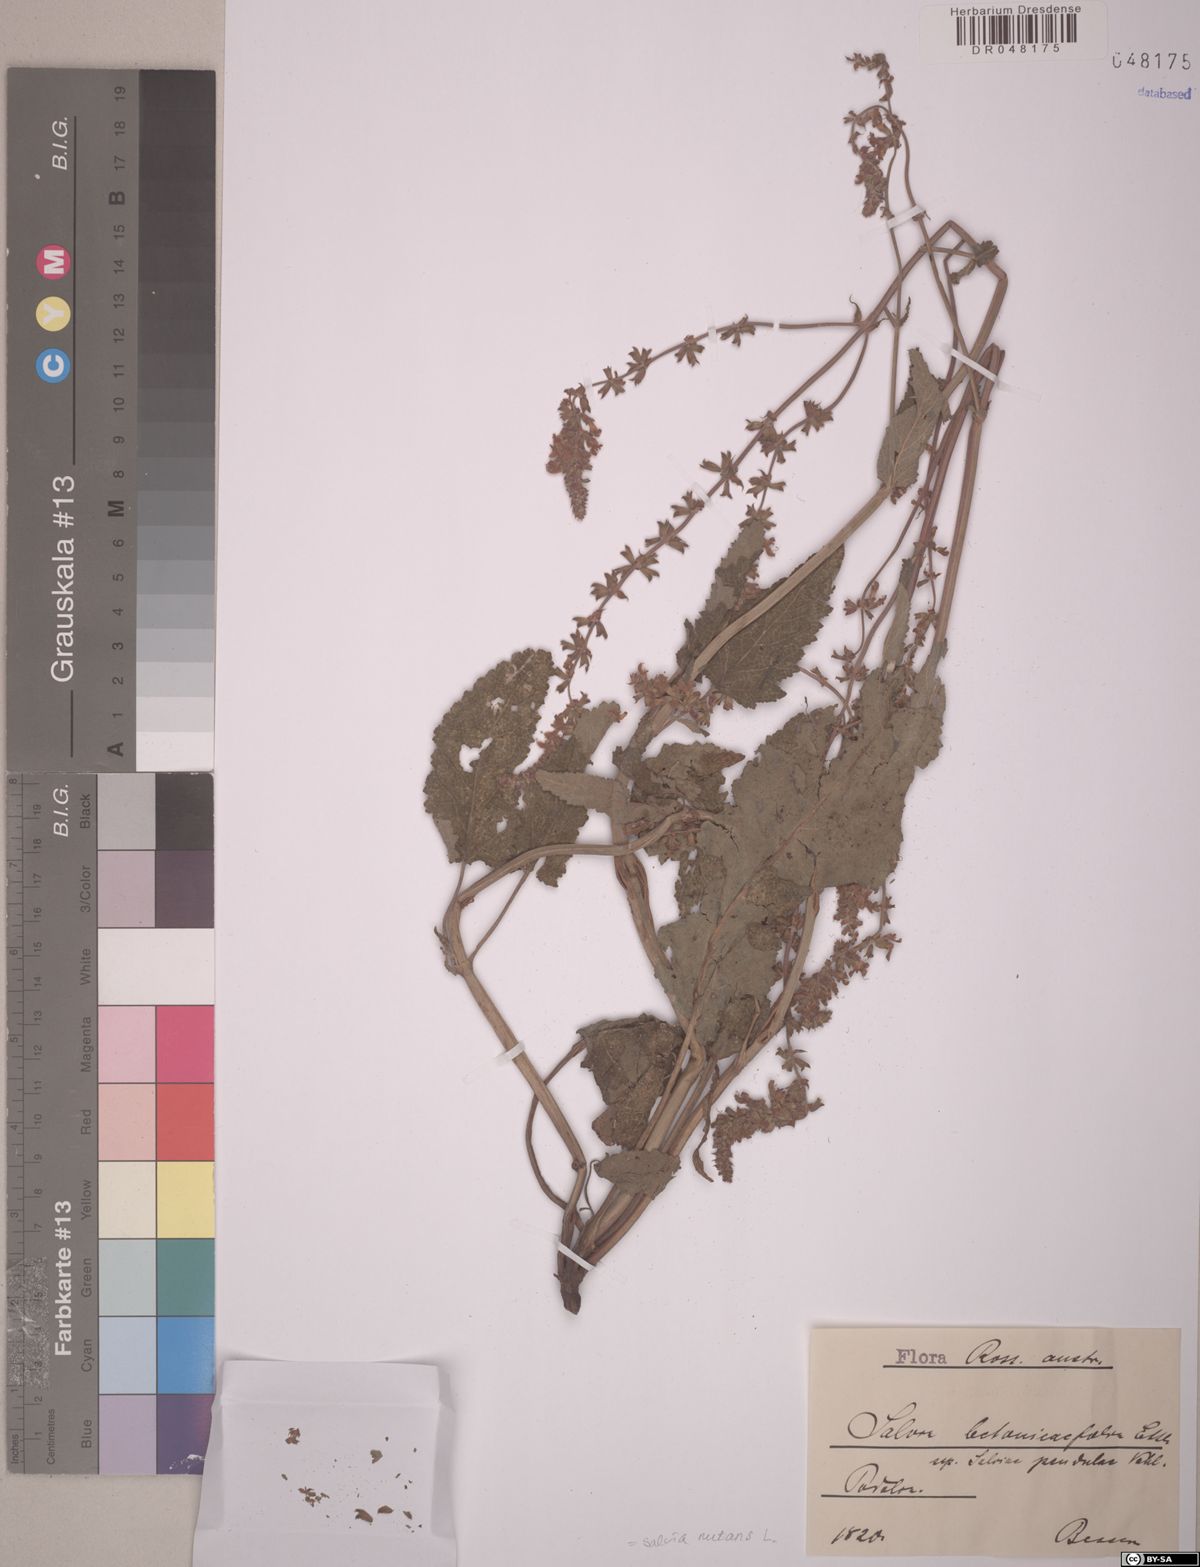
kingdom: Plantae
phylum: Tracheophyta
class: Magnoliopsida
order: Lamiales
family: Lamiaceae
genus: Salvia
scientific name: Salvia nutans
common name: Nodding sage
